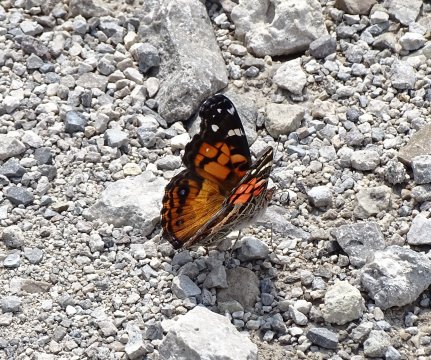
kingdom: Animalia
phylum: Arthropoda
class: Insecta
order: Lepidoptera
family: Nymphalidae
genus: Vanessa
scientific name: Vanessa virginiensis
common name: American Lady
